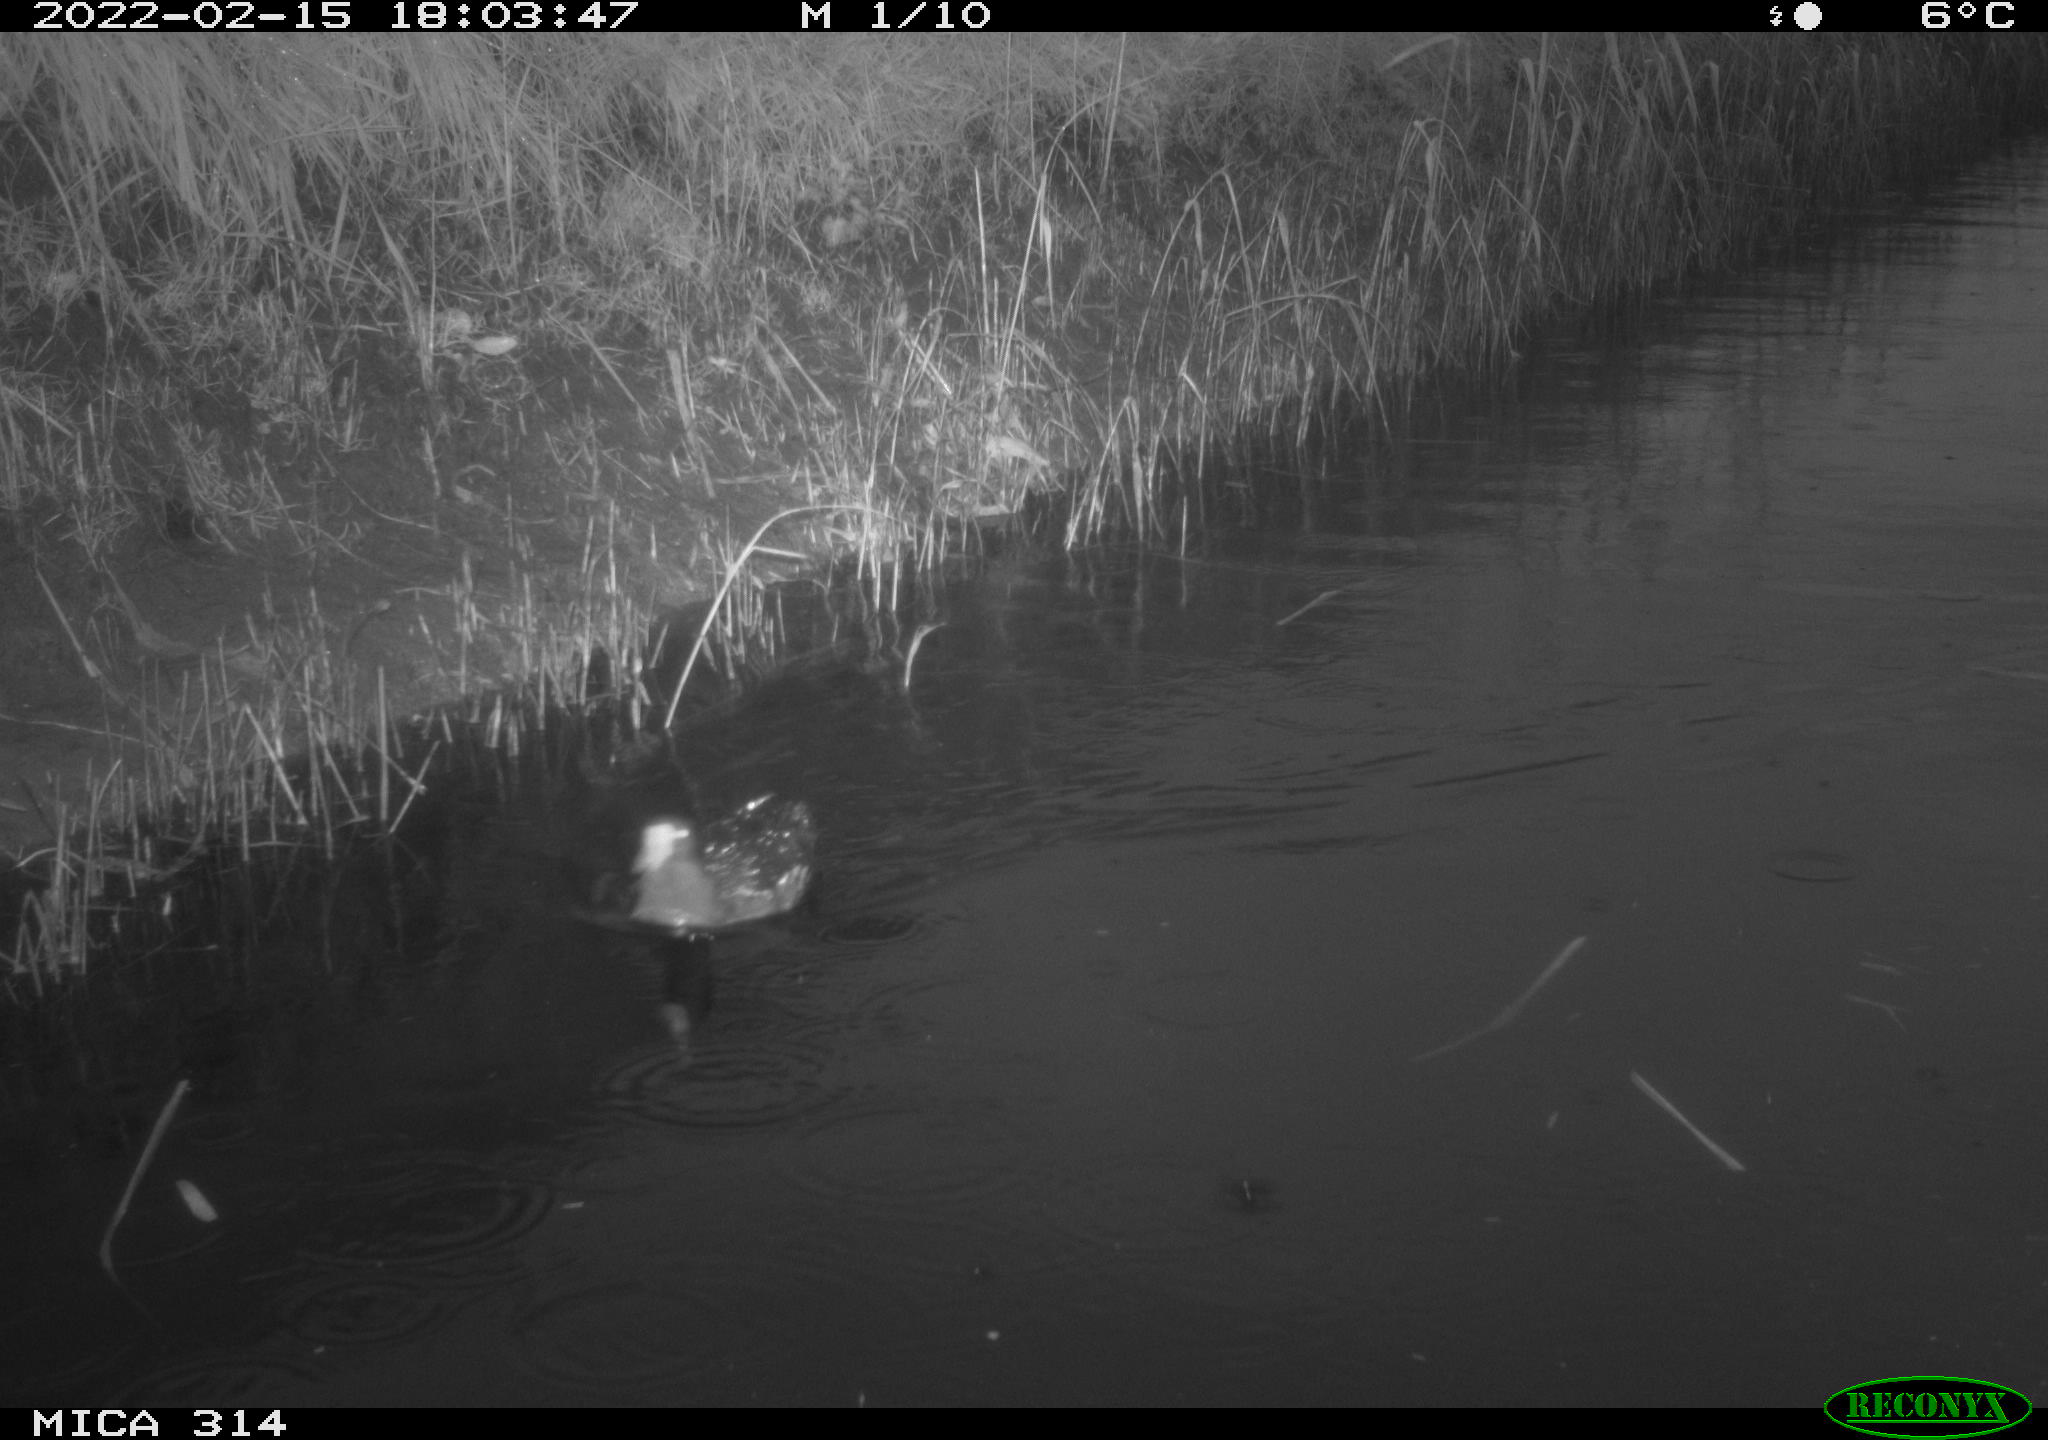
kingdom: Animalia
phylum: Chordata
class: Aves
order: Gruiformes
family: Rallidae
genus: Gallinula
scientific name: Gallinula chloropus
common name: Common moorhen
